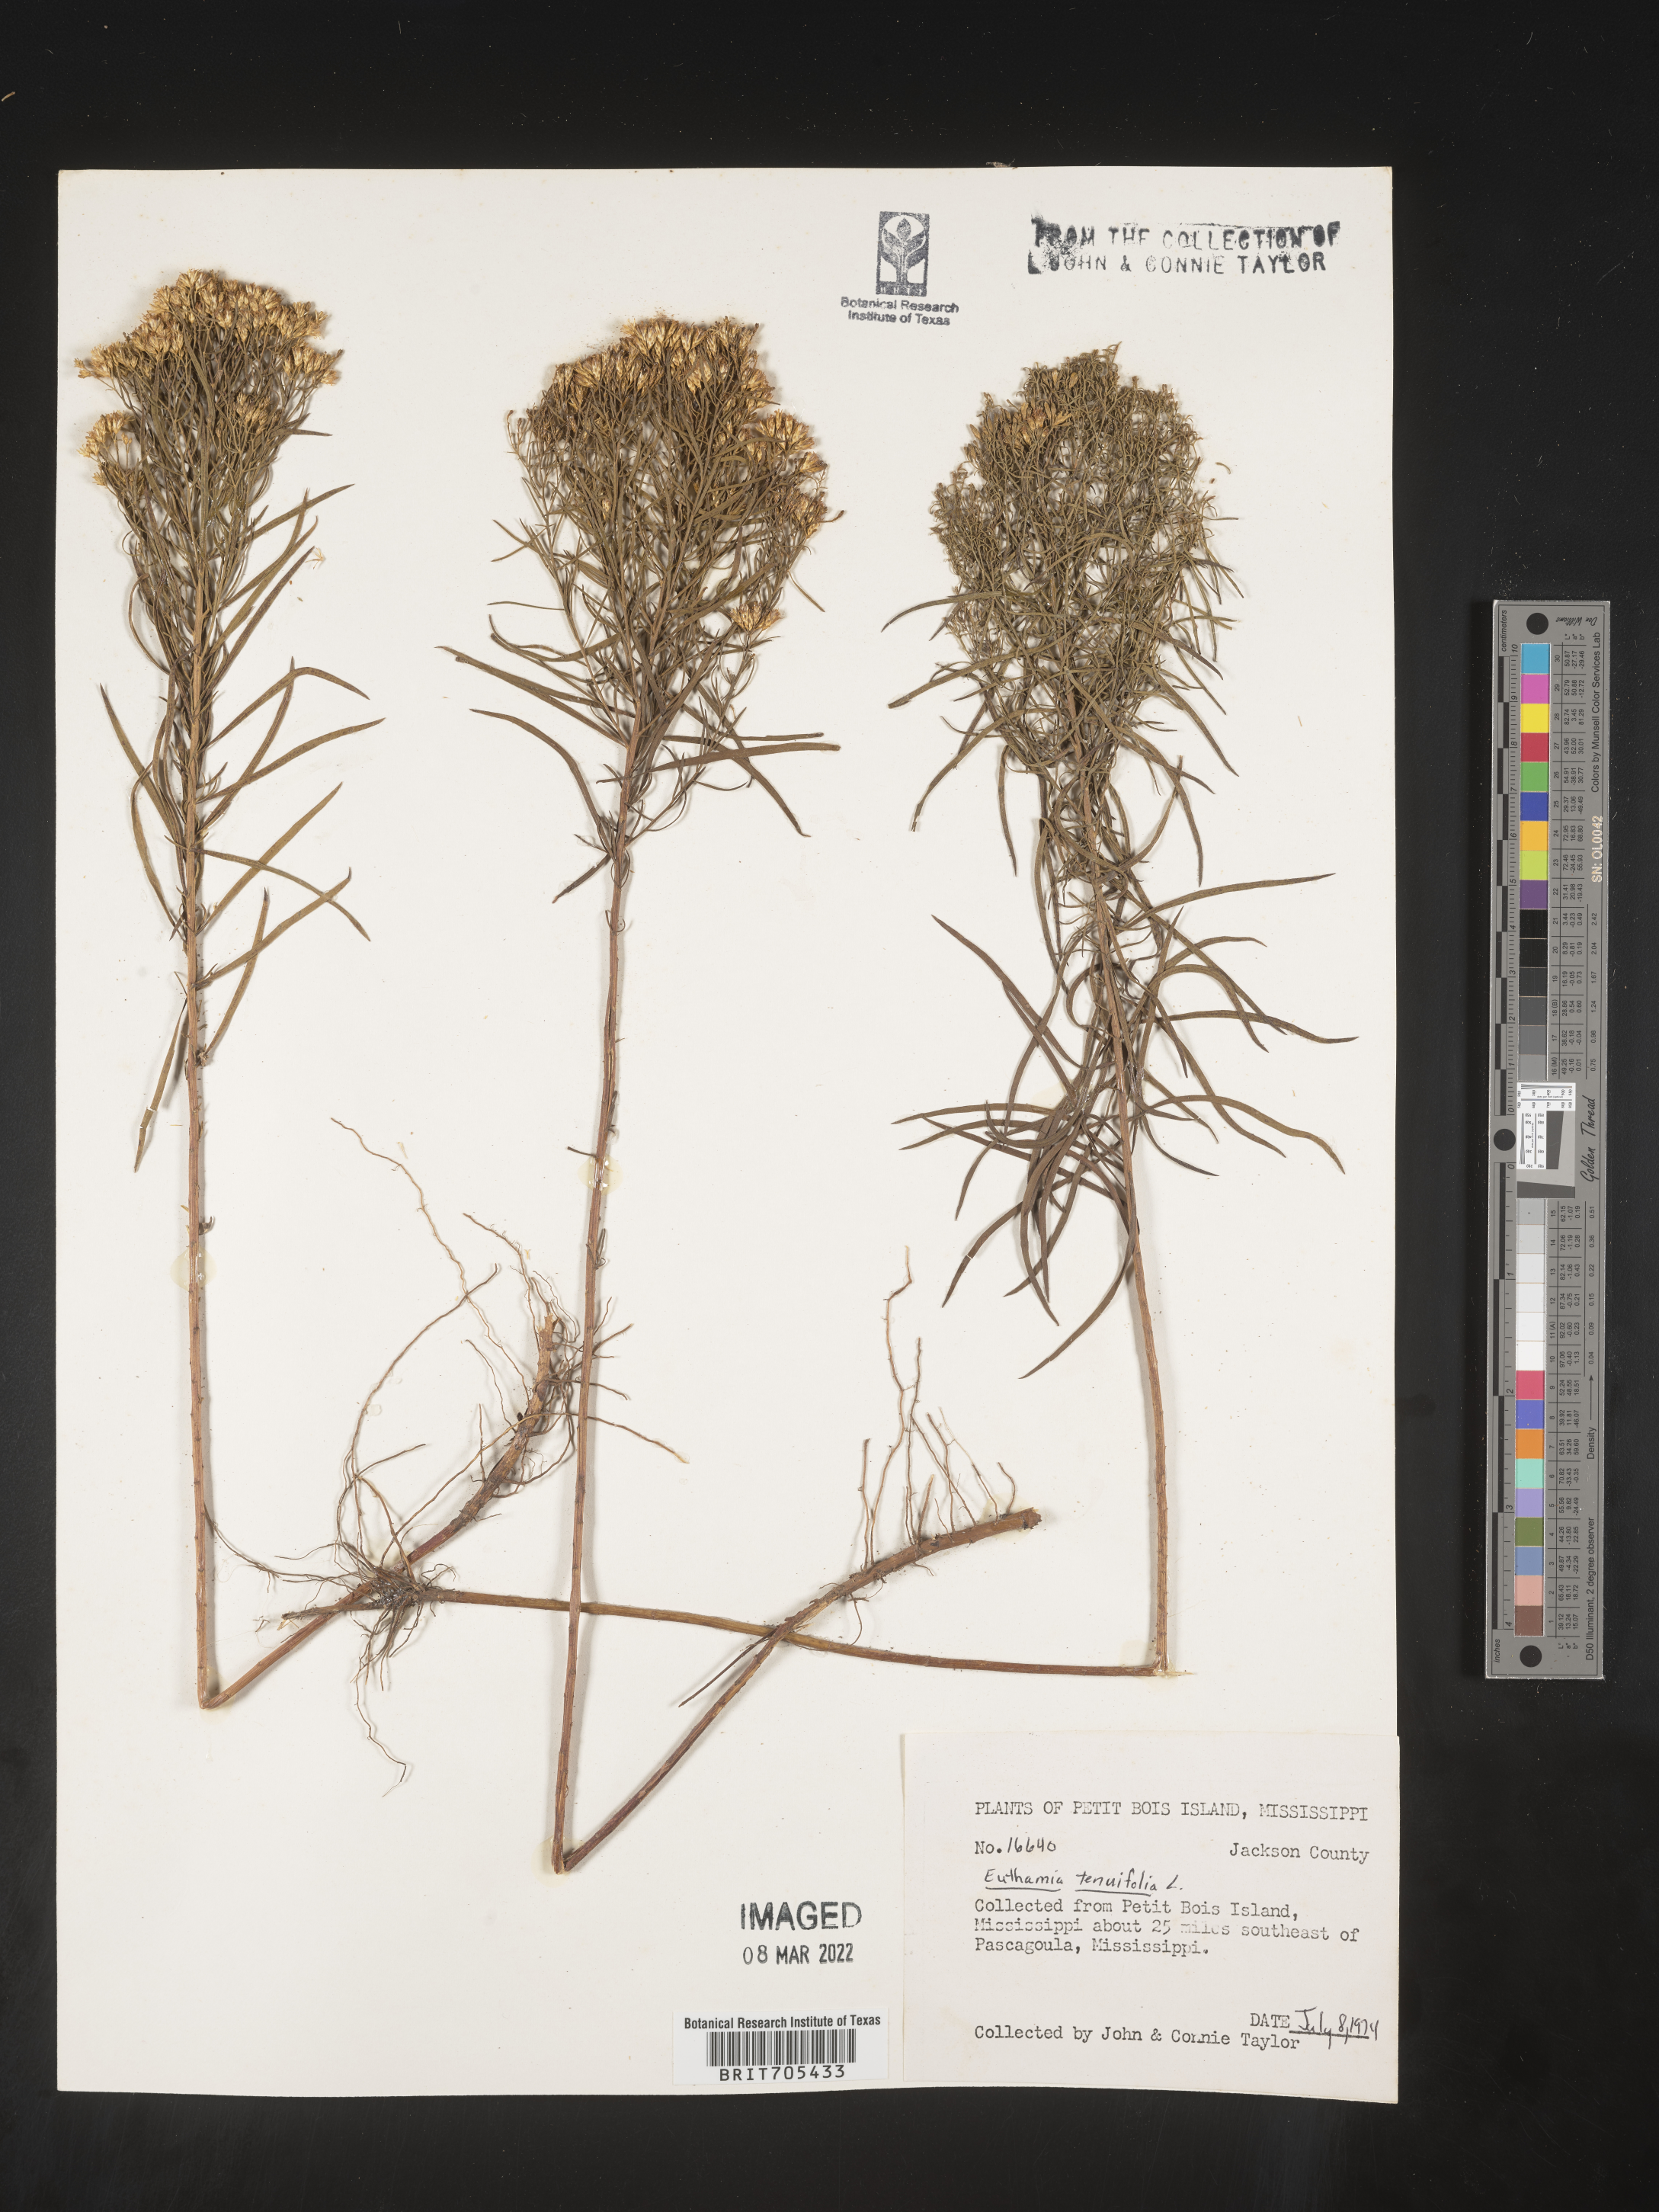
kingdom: Plantae
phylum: Tracheophyta
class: Magnoliopsida
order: Asterales
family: Asteraceae
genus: Euthamia
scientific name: Euthamia
